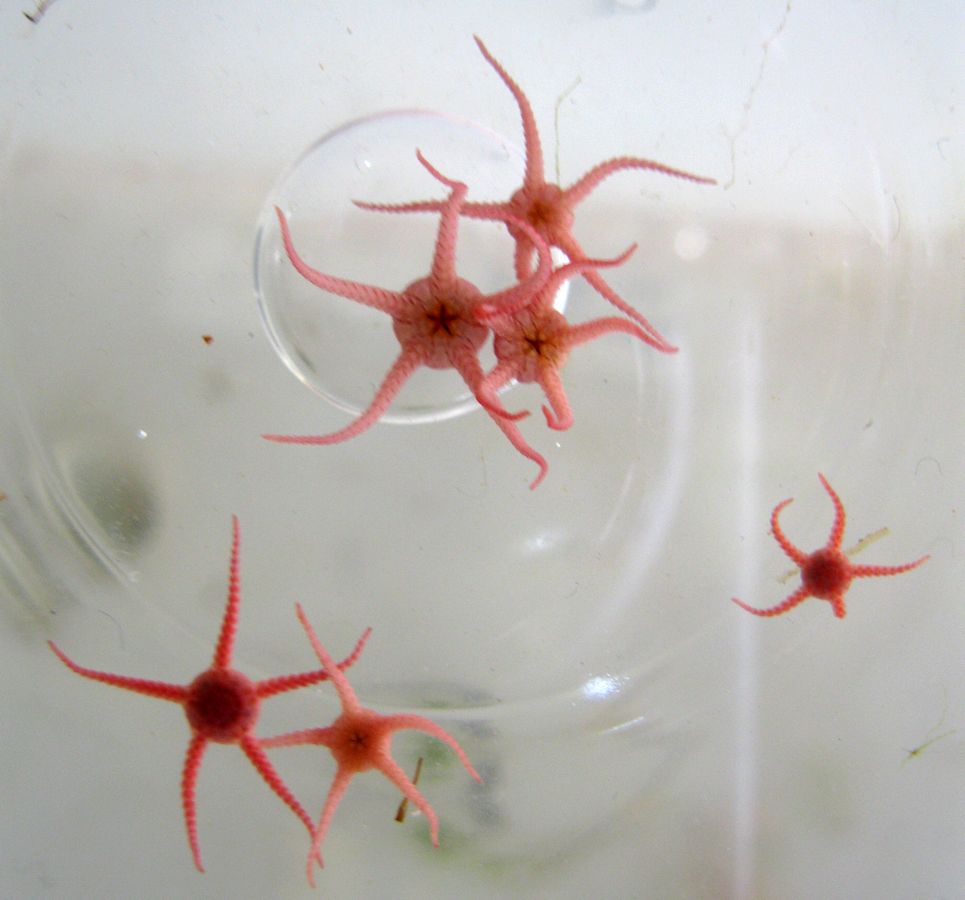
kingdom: Animalia
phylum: Echinodermata
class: Ophiuroidea
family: Ophiopyrgidae
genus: Stegophiura
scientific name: Stegophiura nodosa
